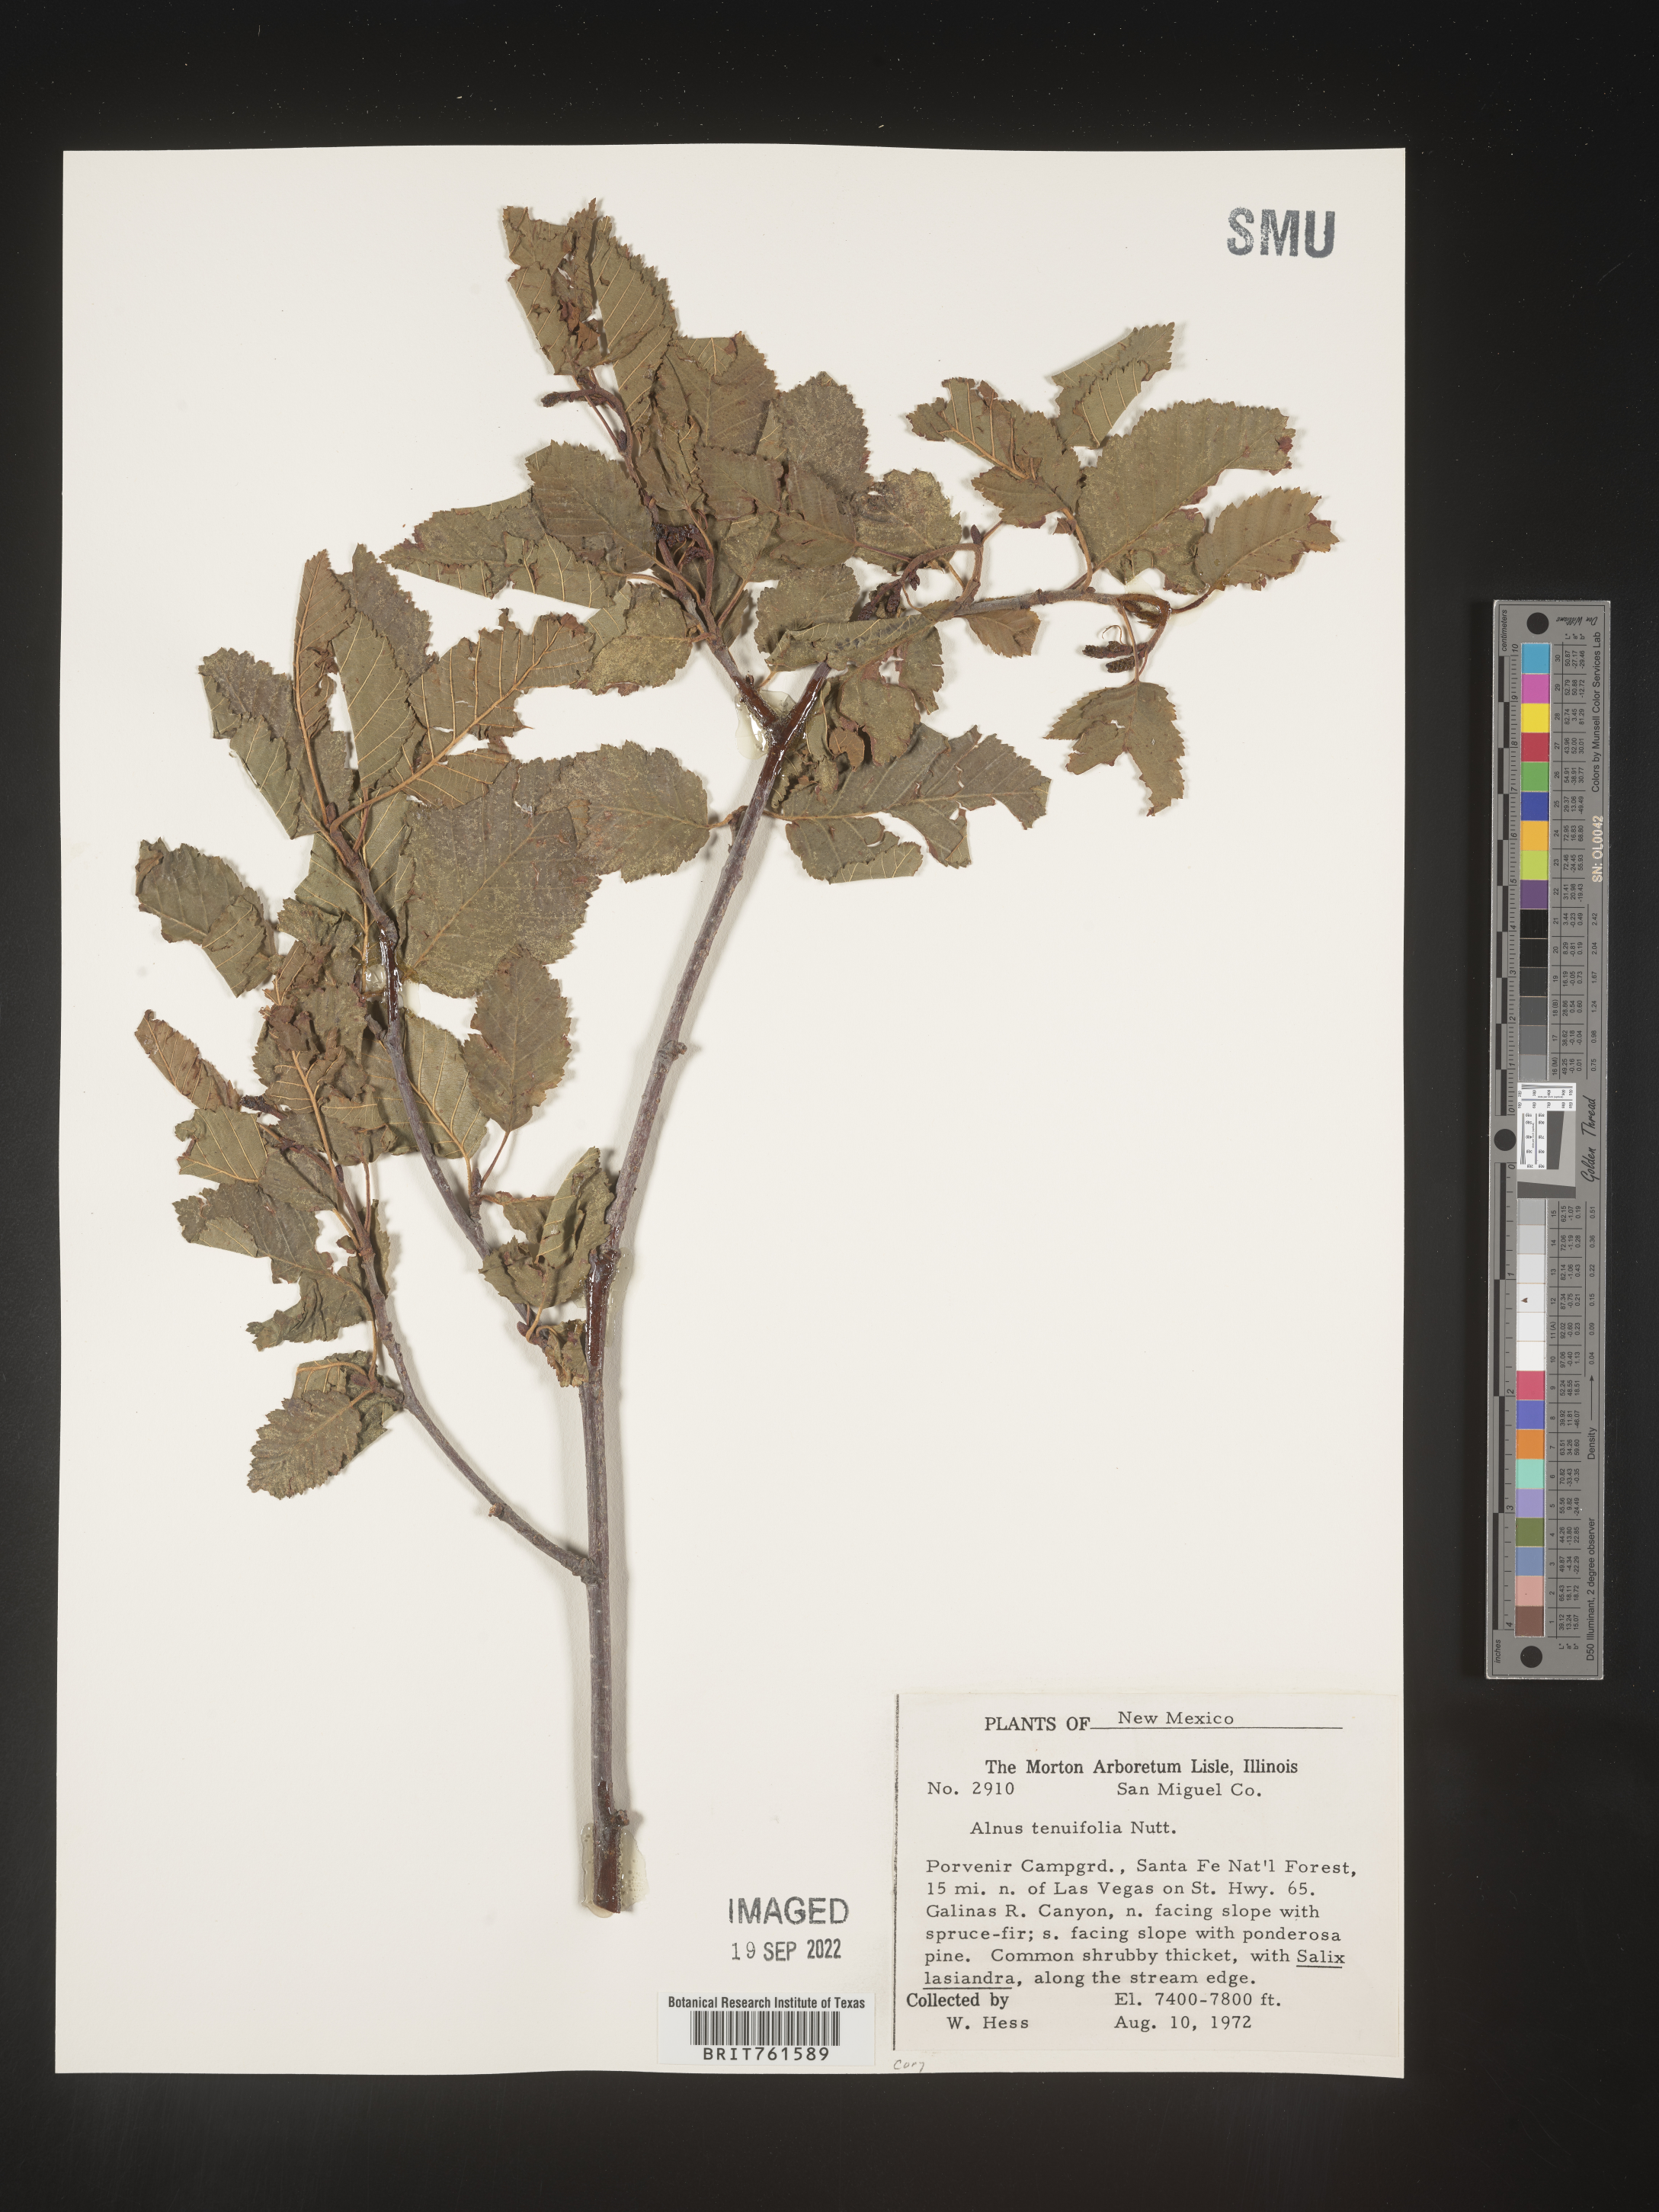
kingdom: Plantae
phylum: Tracheophyta
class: Magnoliopsida
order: Fagales
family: Betulaceae
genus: Alnus
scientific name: Alnus incana
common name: Grey alder
